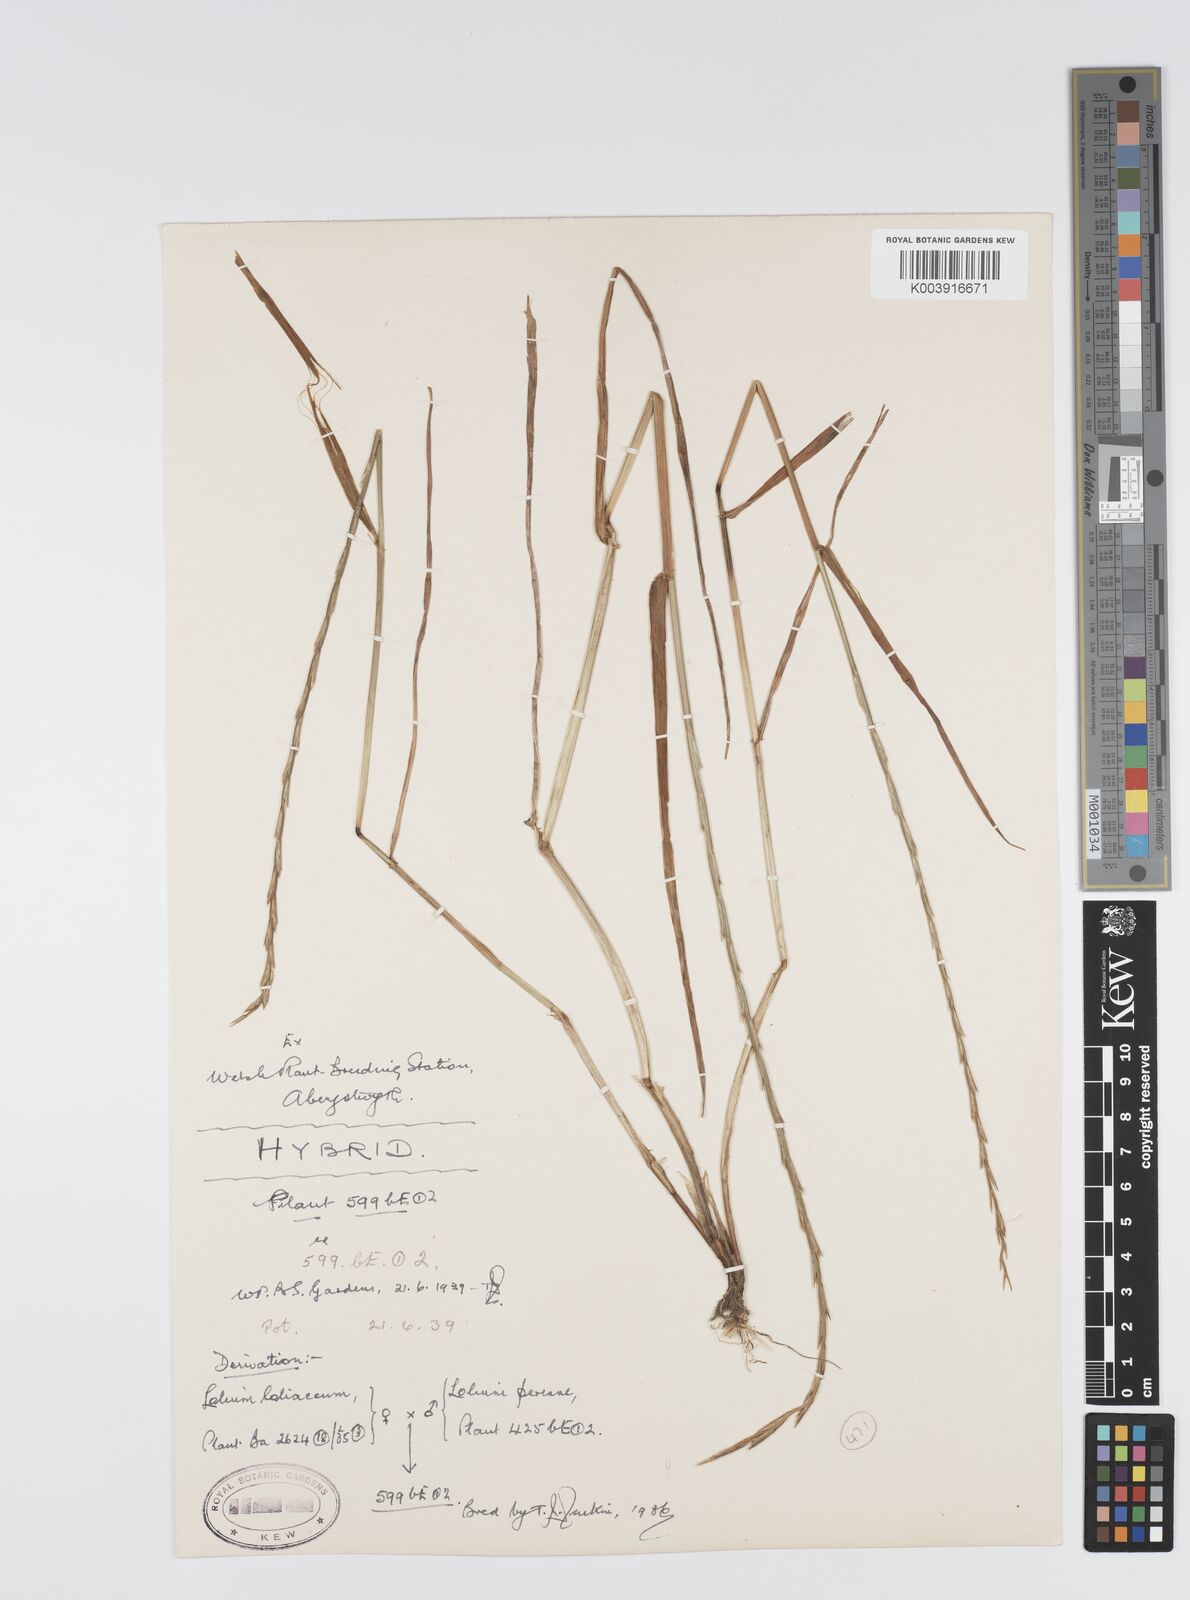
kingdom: Plantae
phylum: Tracheophyta
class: Liliopsida
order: Poales
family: Poaceae
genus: Lolium
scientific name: Lolium perenne
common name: Perennial ryegrass
